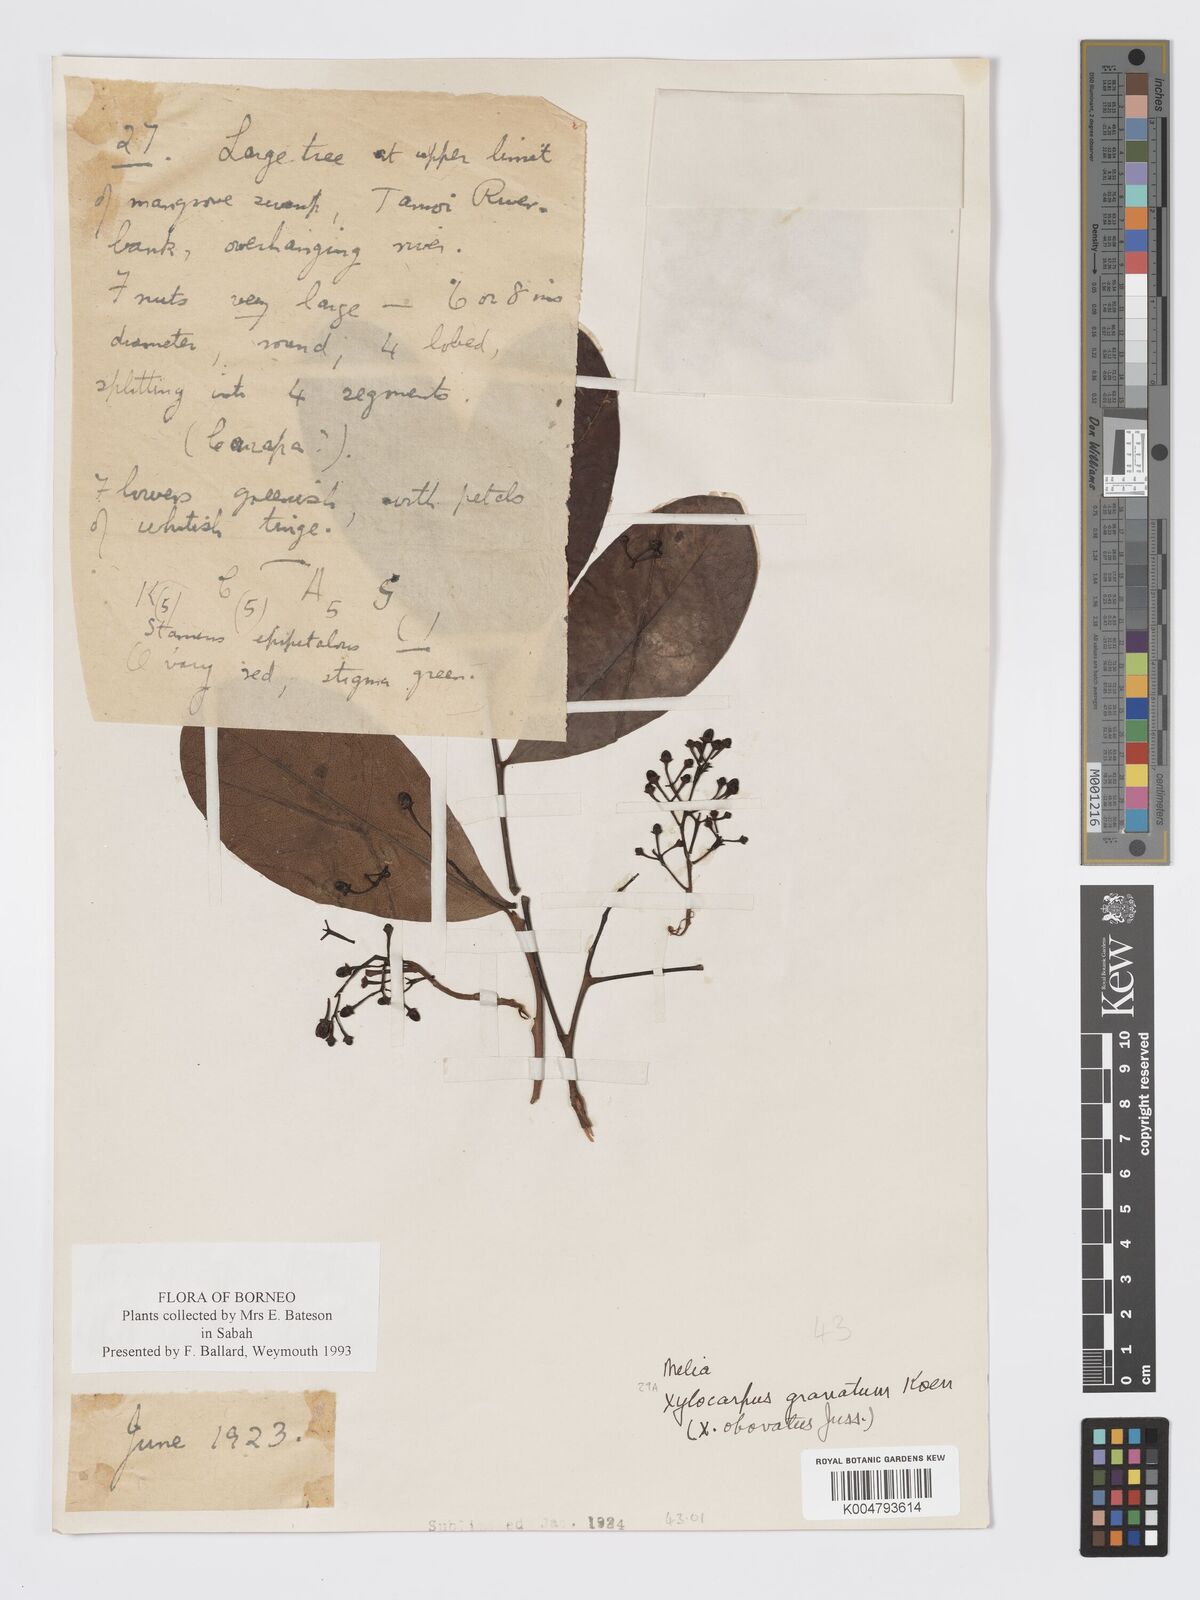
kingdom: Plantae
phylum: Tracheophyta
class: Magnoliopsida
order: Sapindales
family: Meliaceae
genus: Xylocarpus
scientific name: Xylocarpus granatum
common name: Apple mangrove
